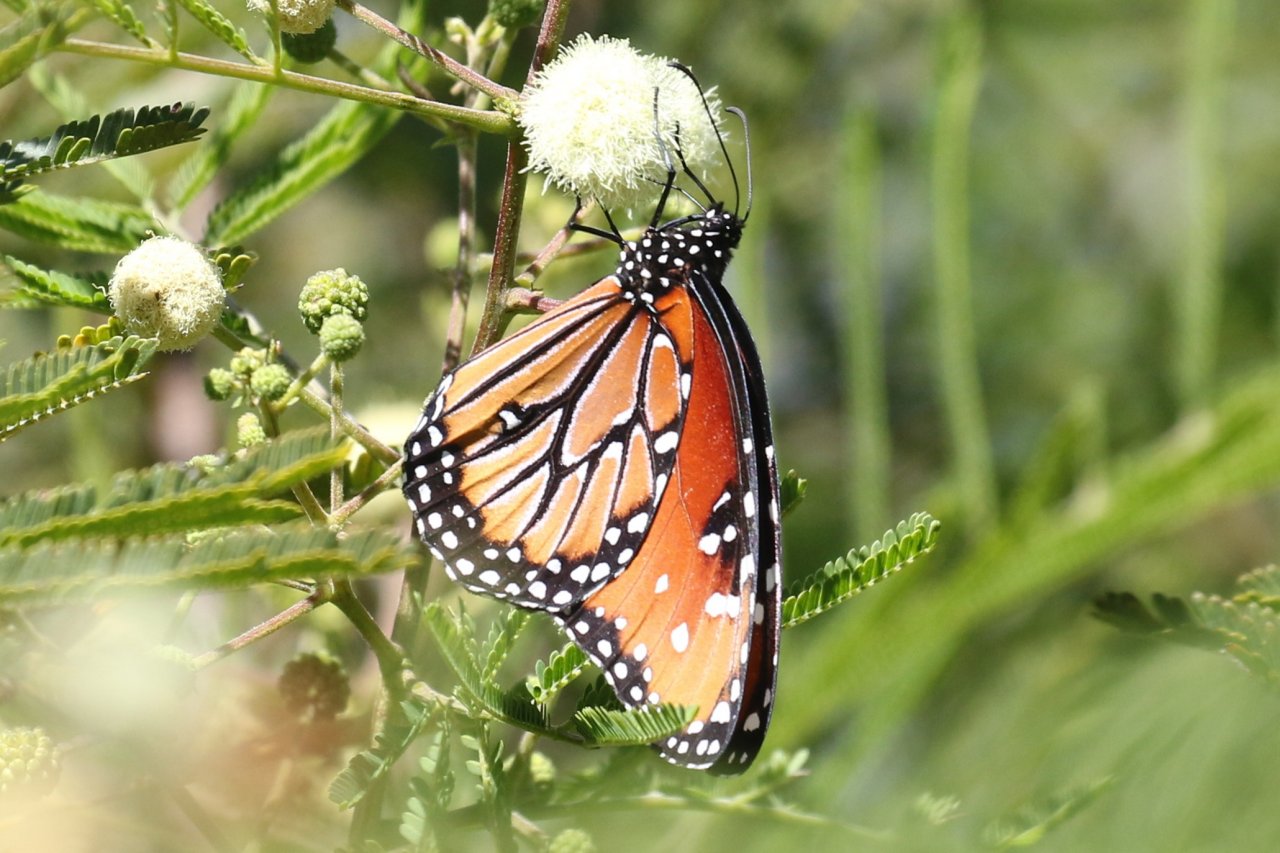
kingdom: Animalia
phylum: Arthropoda
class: Insecta
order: Lepidoptera
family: Nymphalidae
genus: Danaus
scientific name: Danaus gilippus
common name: Queen
